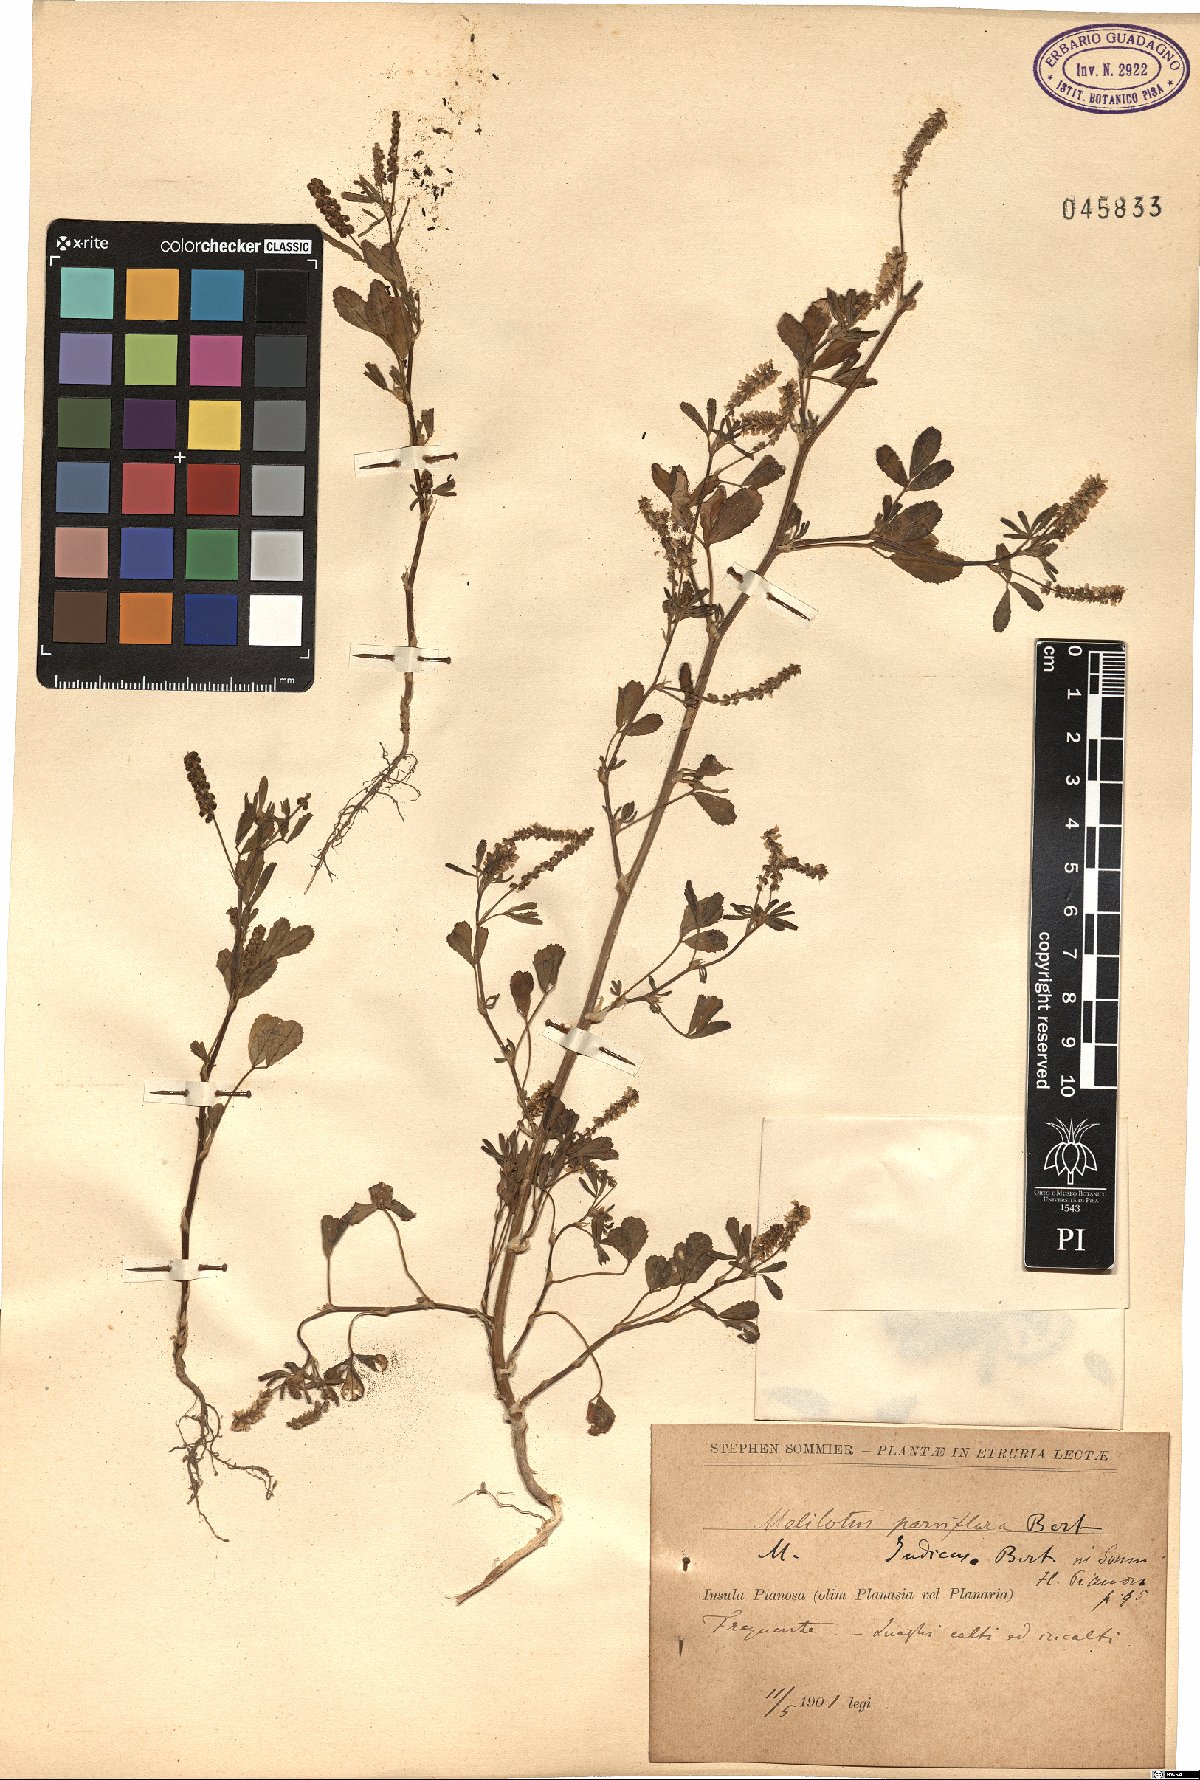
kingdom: Plantae
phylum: Tracheophyta
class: Magnoliopsida
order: Fabales
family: Fabaceae
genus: Melilotus
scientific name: Melilotus indicus
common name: Small melilot
